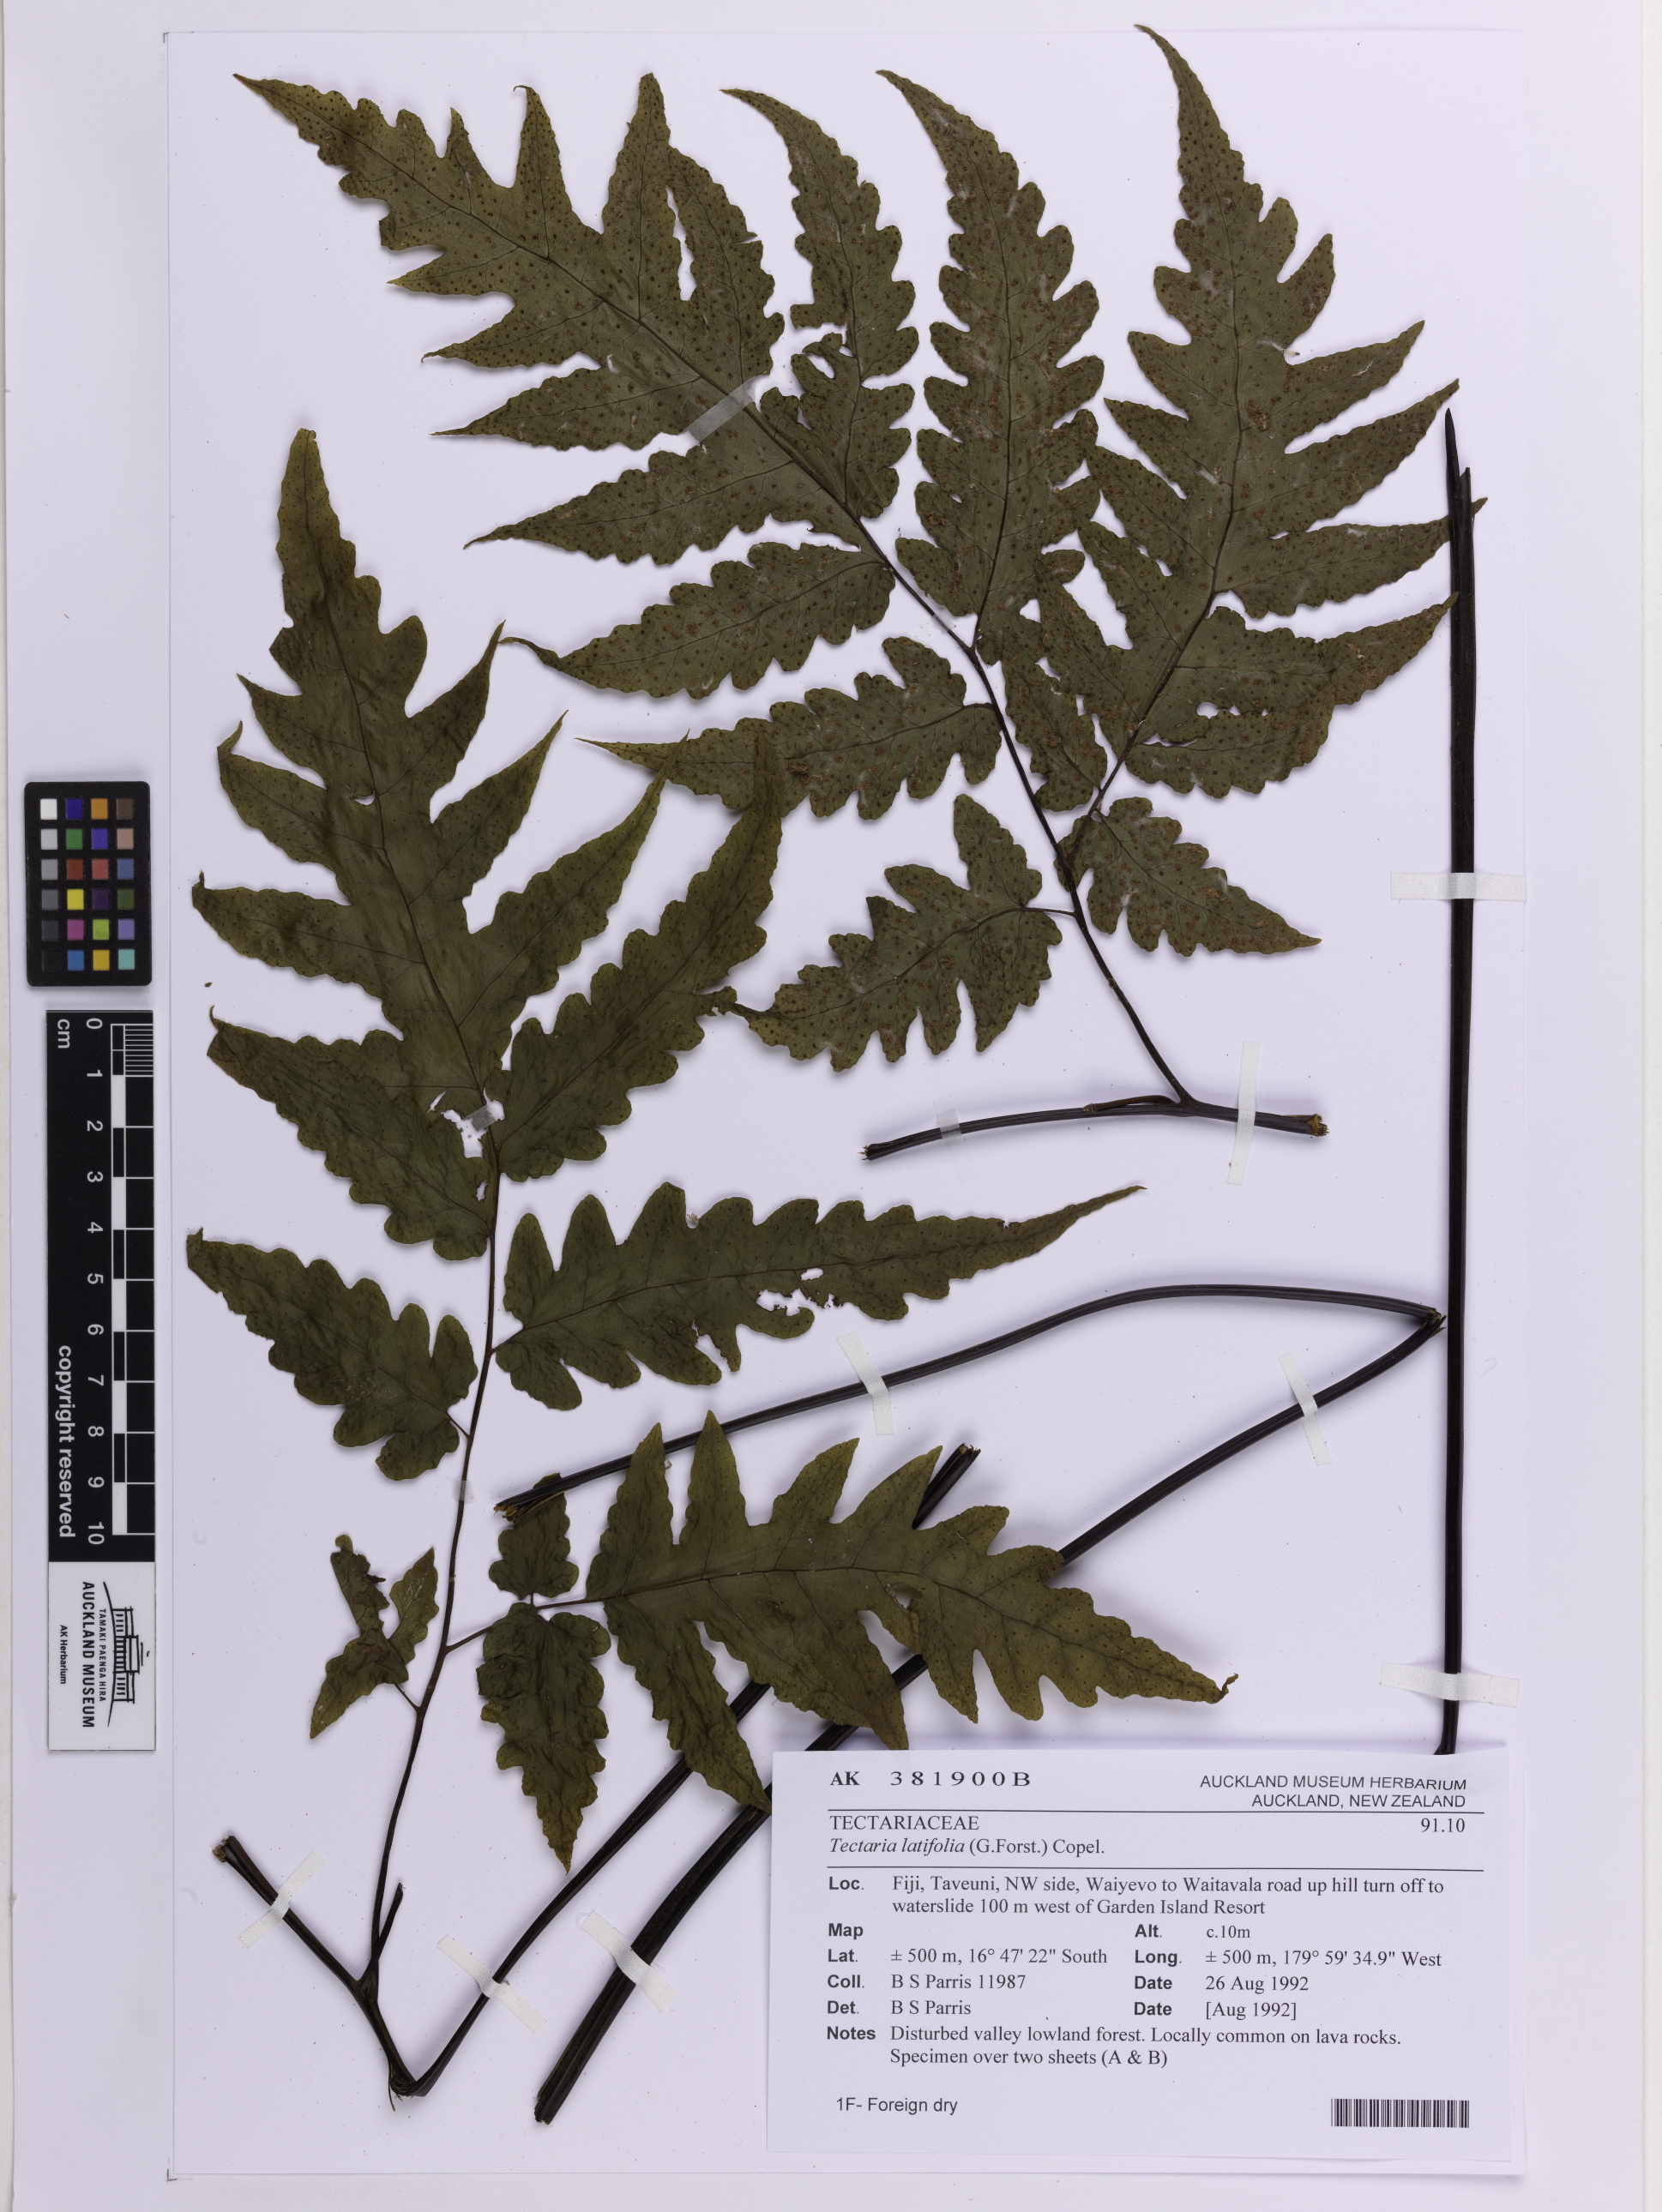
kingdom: Plantae
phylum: Tracheophyta
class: Polypodiopsida
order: Polypodiales
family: Tectariaceae
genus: Tectaria
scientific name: Tectaria latifolia
